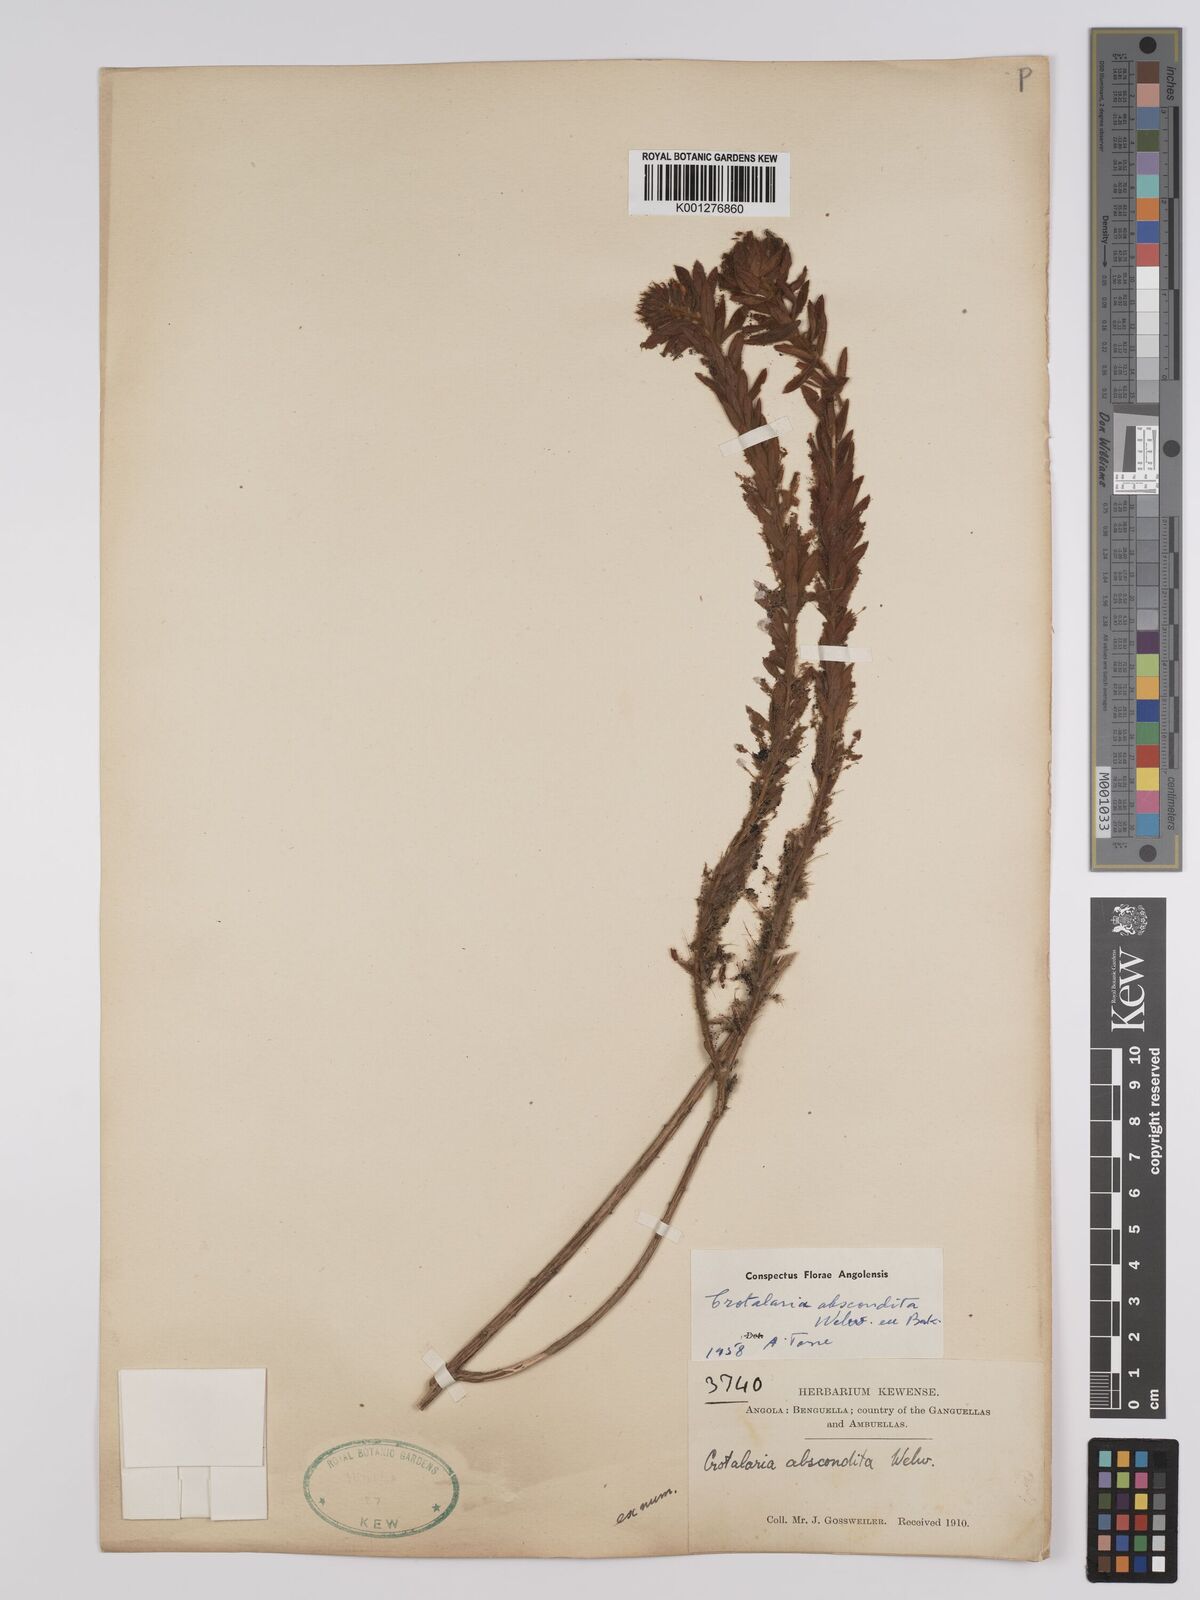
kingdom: Plantae
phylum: Tracheophyta
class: Magnoliopsida
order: Fabales
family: Fabaceae
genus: Crotalaria
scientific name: Crotalaria abscondita
